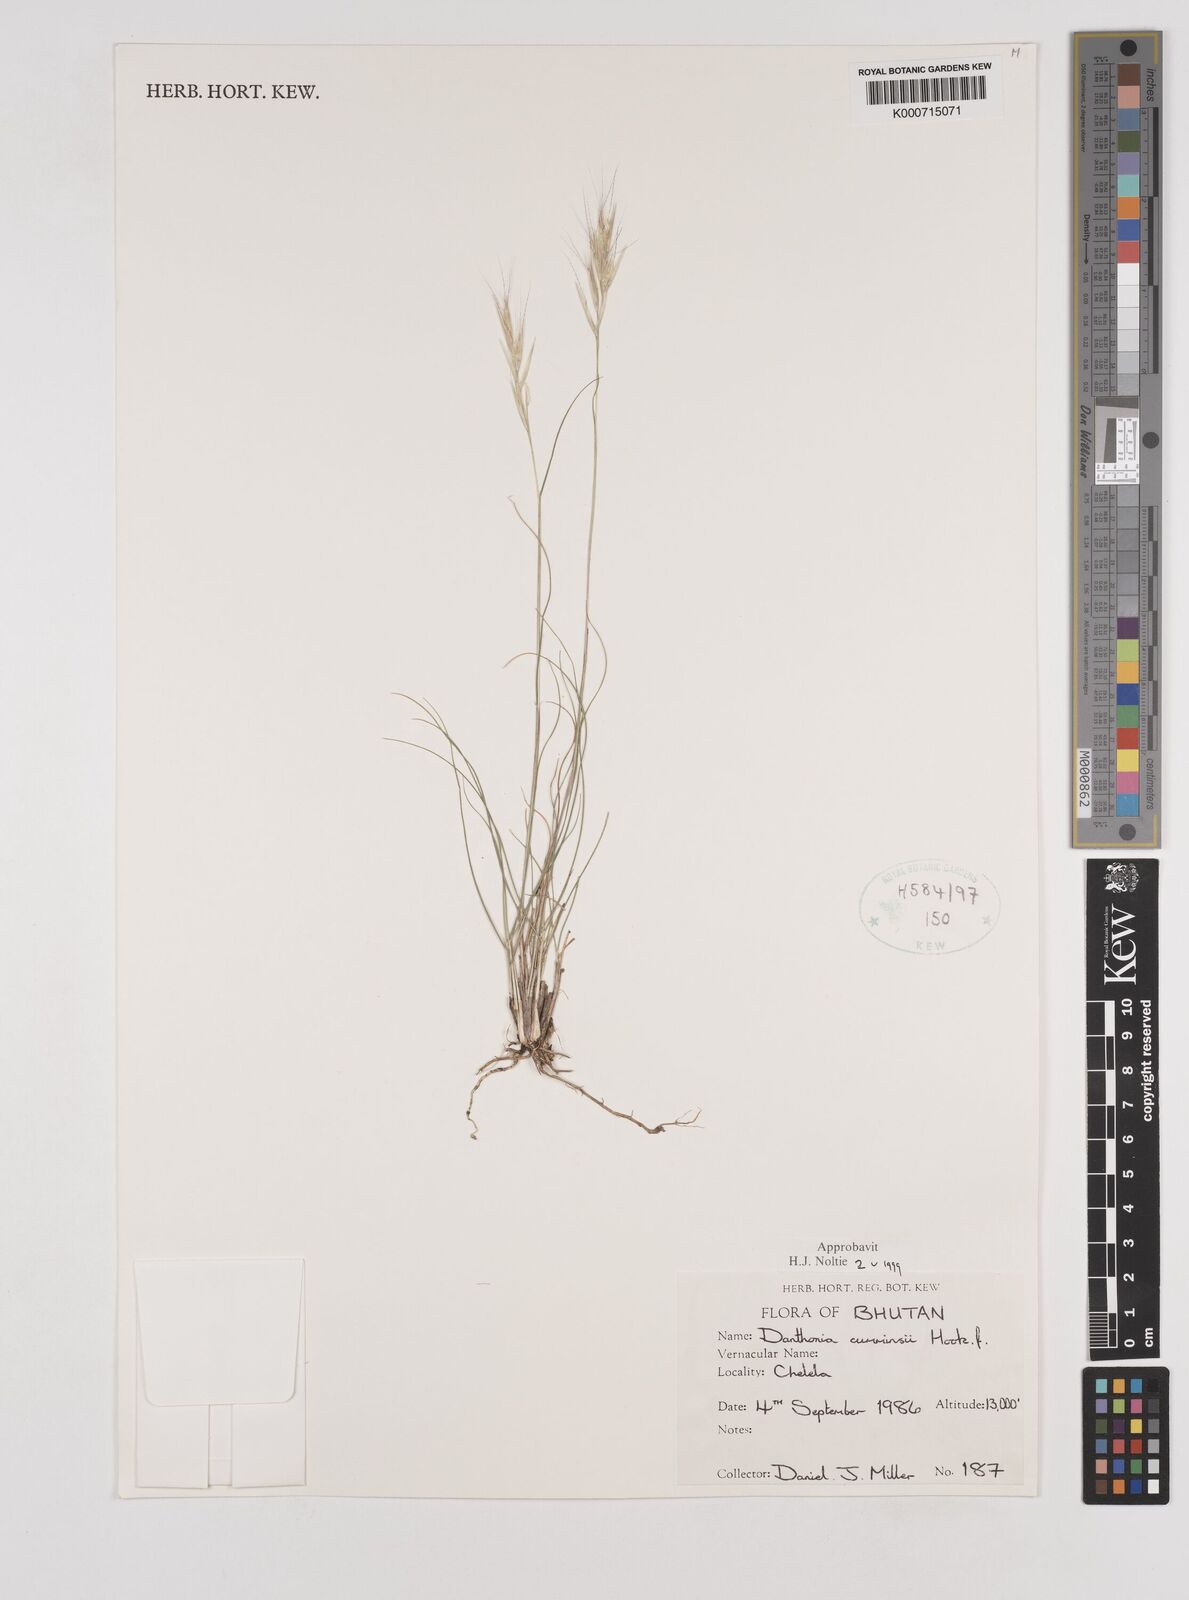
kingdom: Plantae
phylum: Tracheophyta
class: Liliopsida
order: Poales
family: Poaceae
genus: Rytidosperma
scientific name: Rytidosperma
